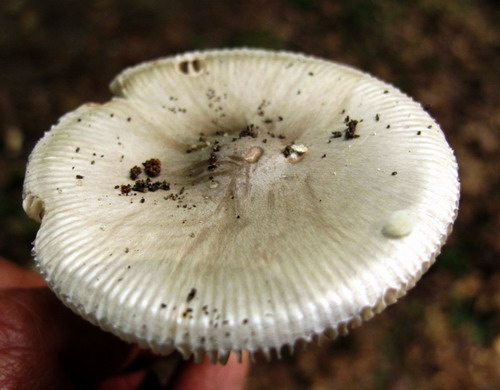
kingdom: Fungi
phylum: Basidiomycota
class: Agaricomycetes
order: Agaricales
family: Amanitaceae
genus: Amanita
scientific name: Amanita vaginata
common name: grå kam-fluesvamp
